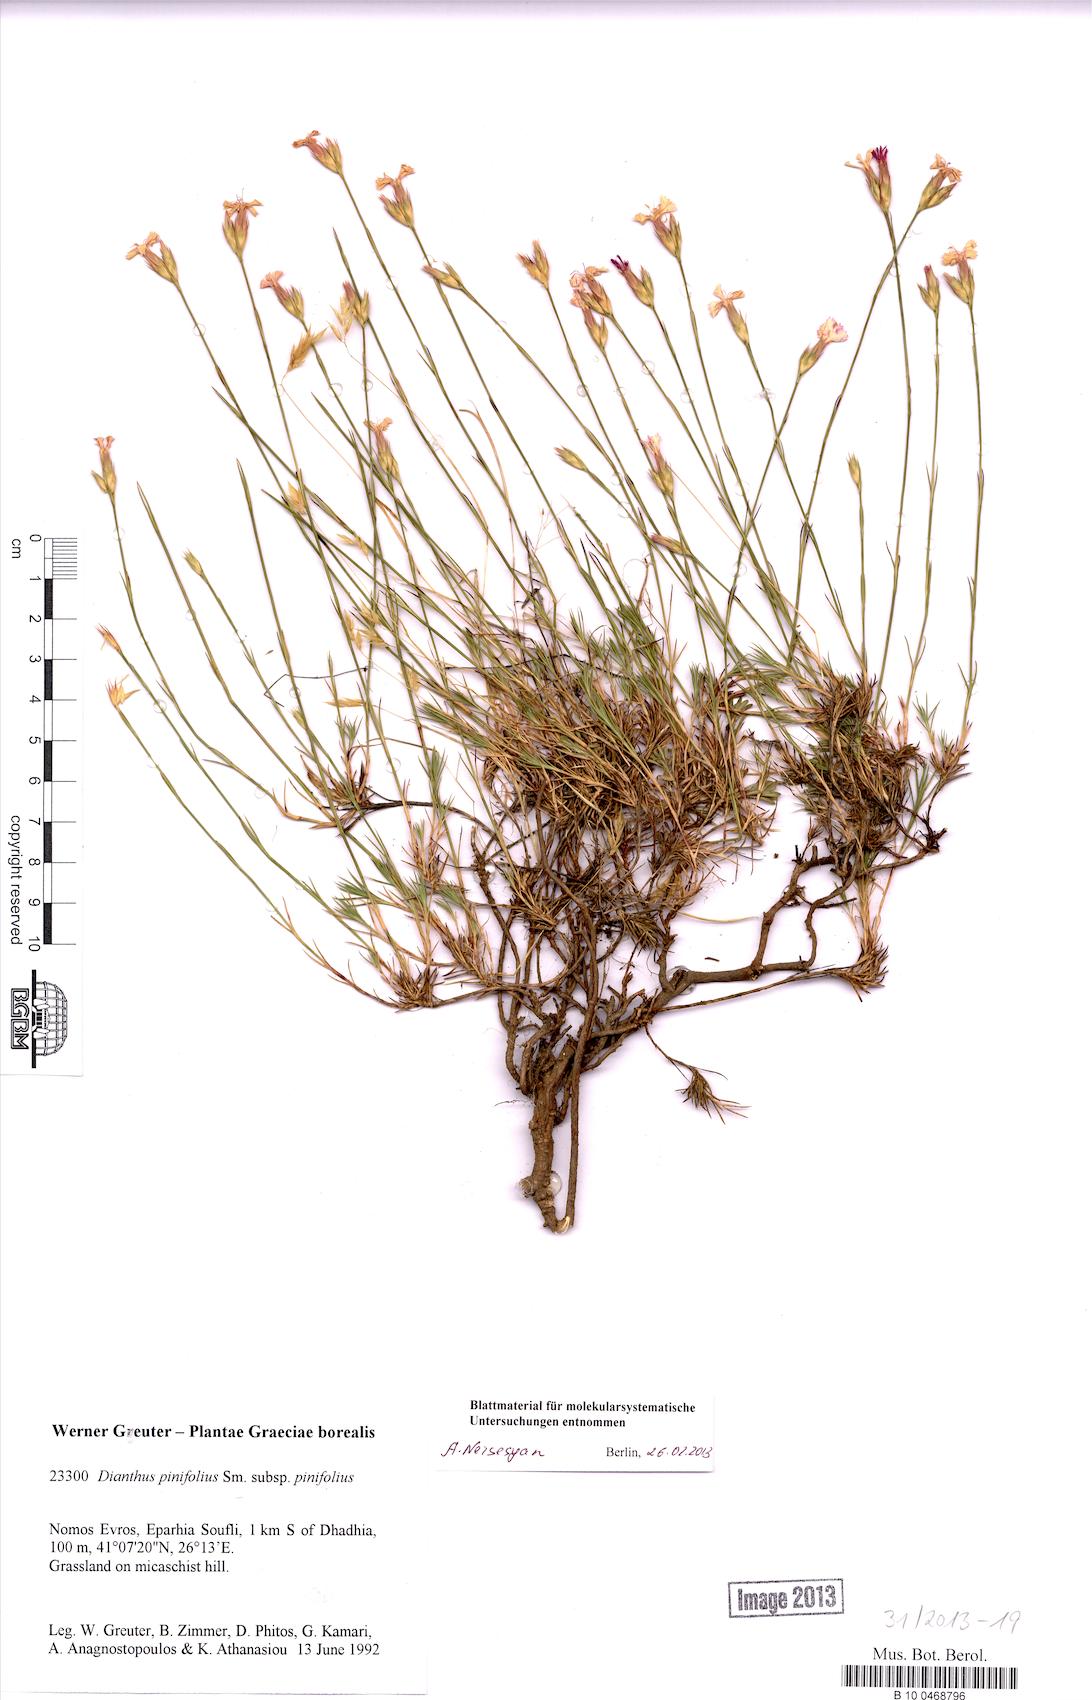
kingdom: Plantae
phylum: Tracheophyta
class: Magnoliopsida
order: Caryophyllales
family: Caryophyllaceae
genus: Dianthus
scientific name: Dianthus pinifolius
